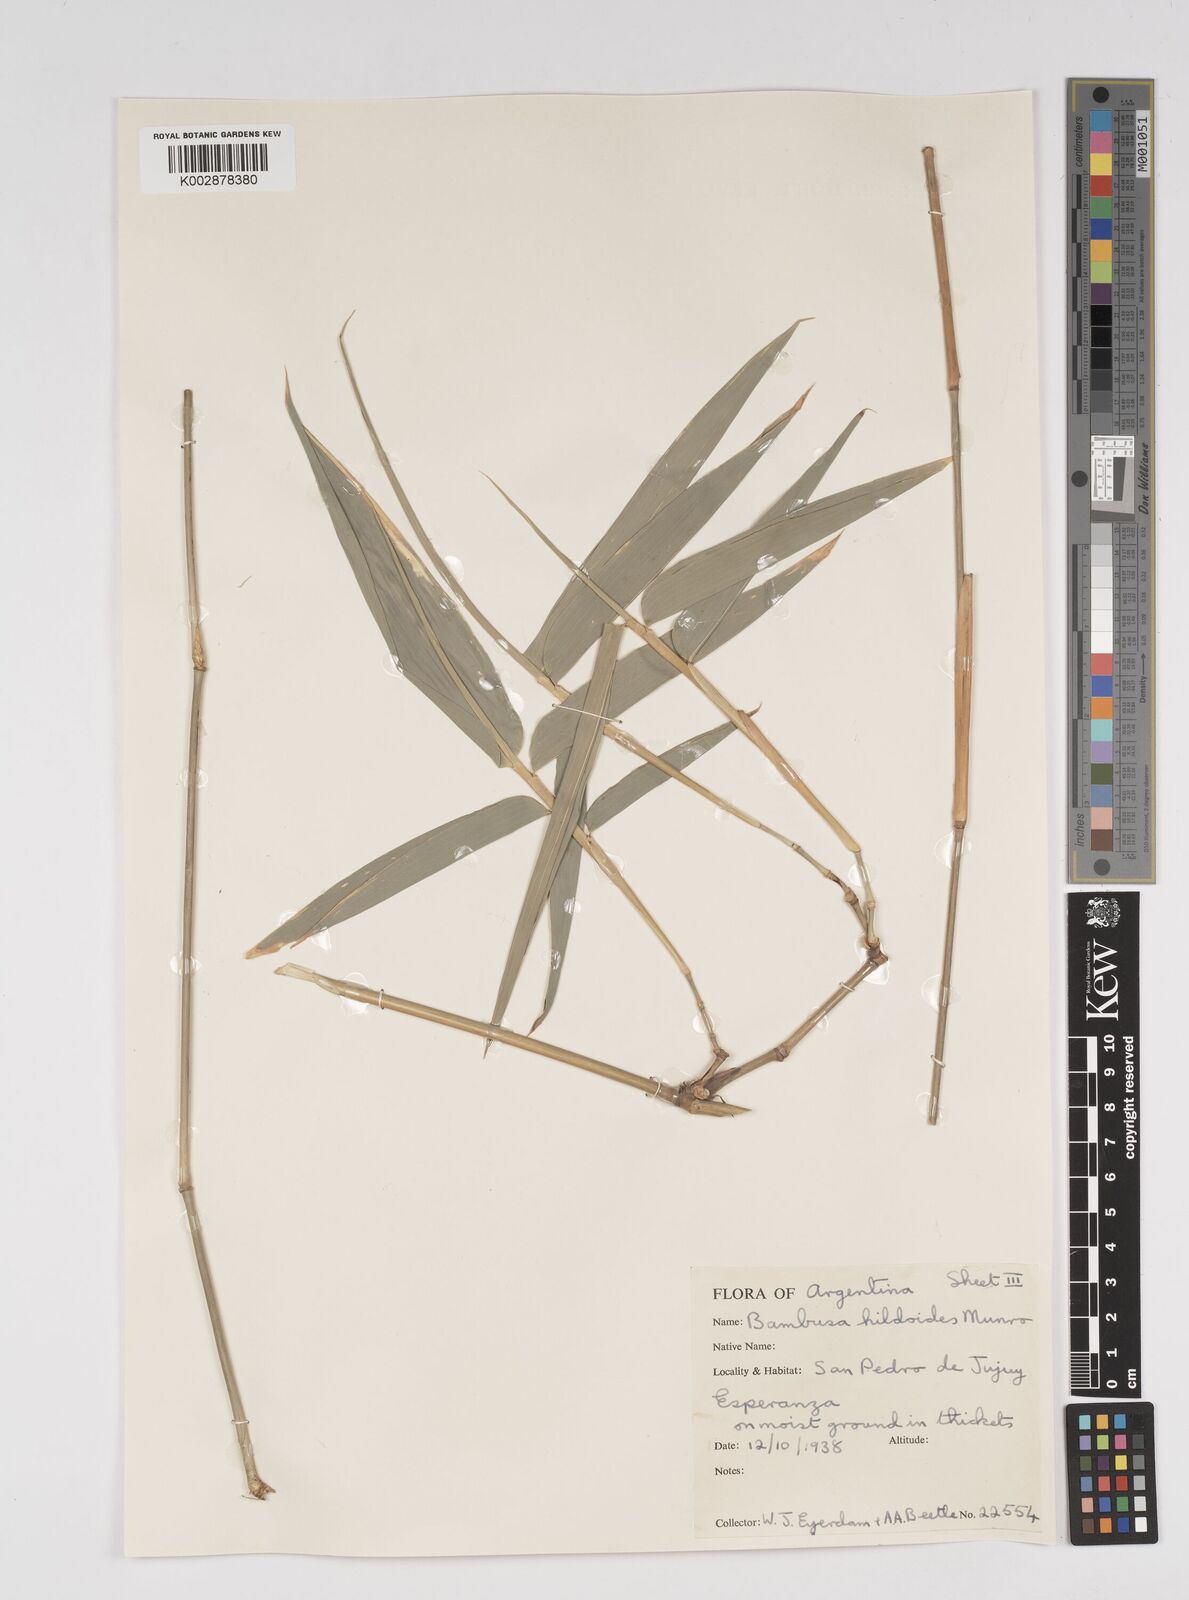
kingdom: Plantae
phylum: Tracheophyta
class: Liliopsida
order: Poales
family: Poaceae
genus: Bambusa
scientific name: Bambusa tuldoides
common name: Verdant bamboo
